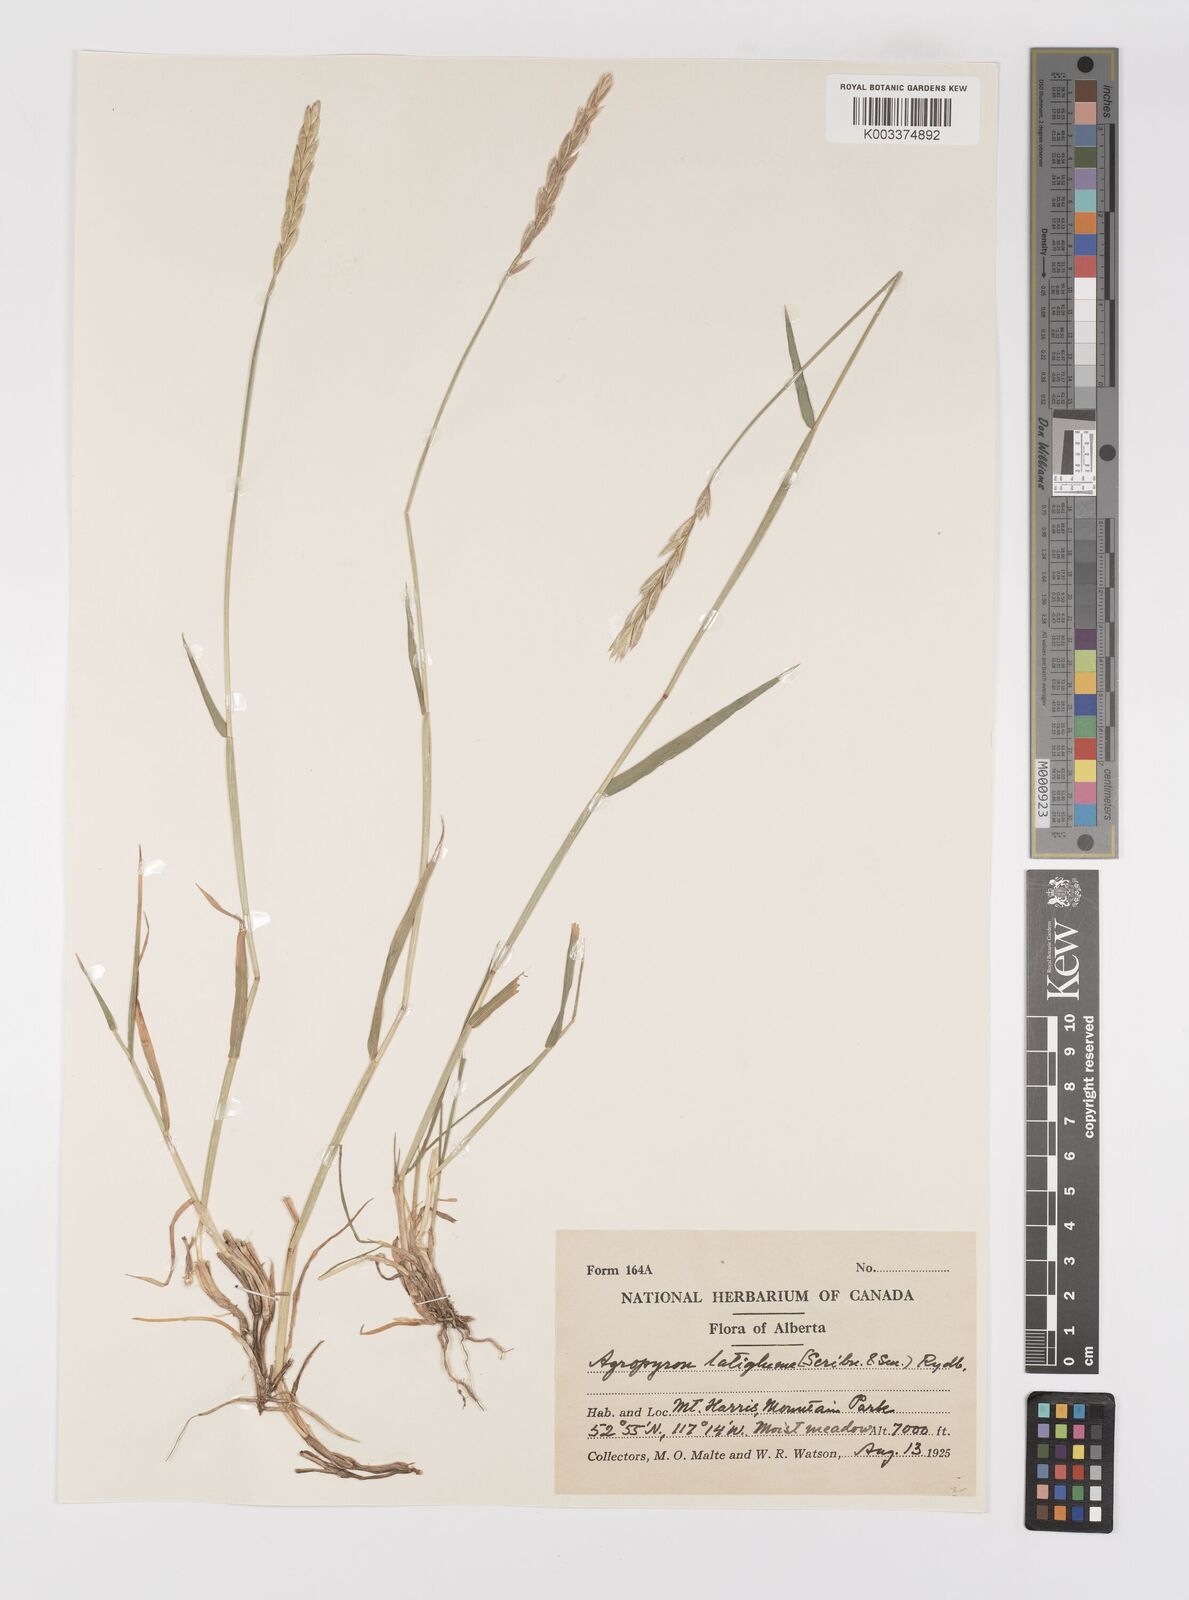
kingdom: Plantae
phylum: Tracheophyta
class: Liliopsida
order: Poales
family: Poaceae
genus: Elymus
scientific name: Elymus violaceus
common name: Arctic wheatgrass
